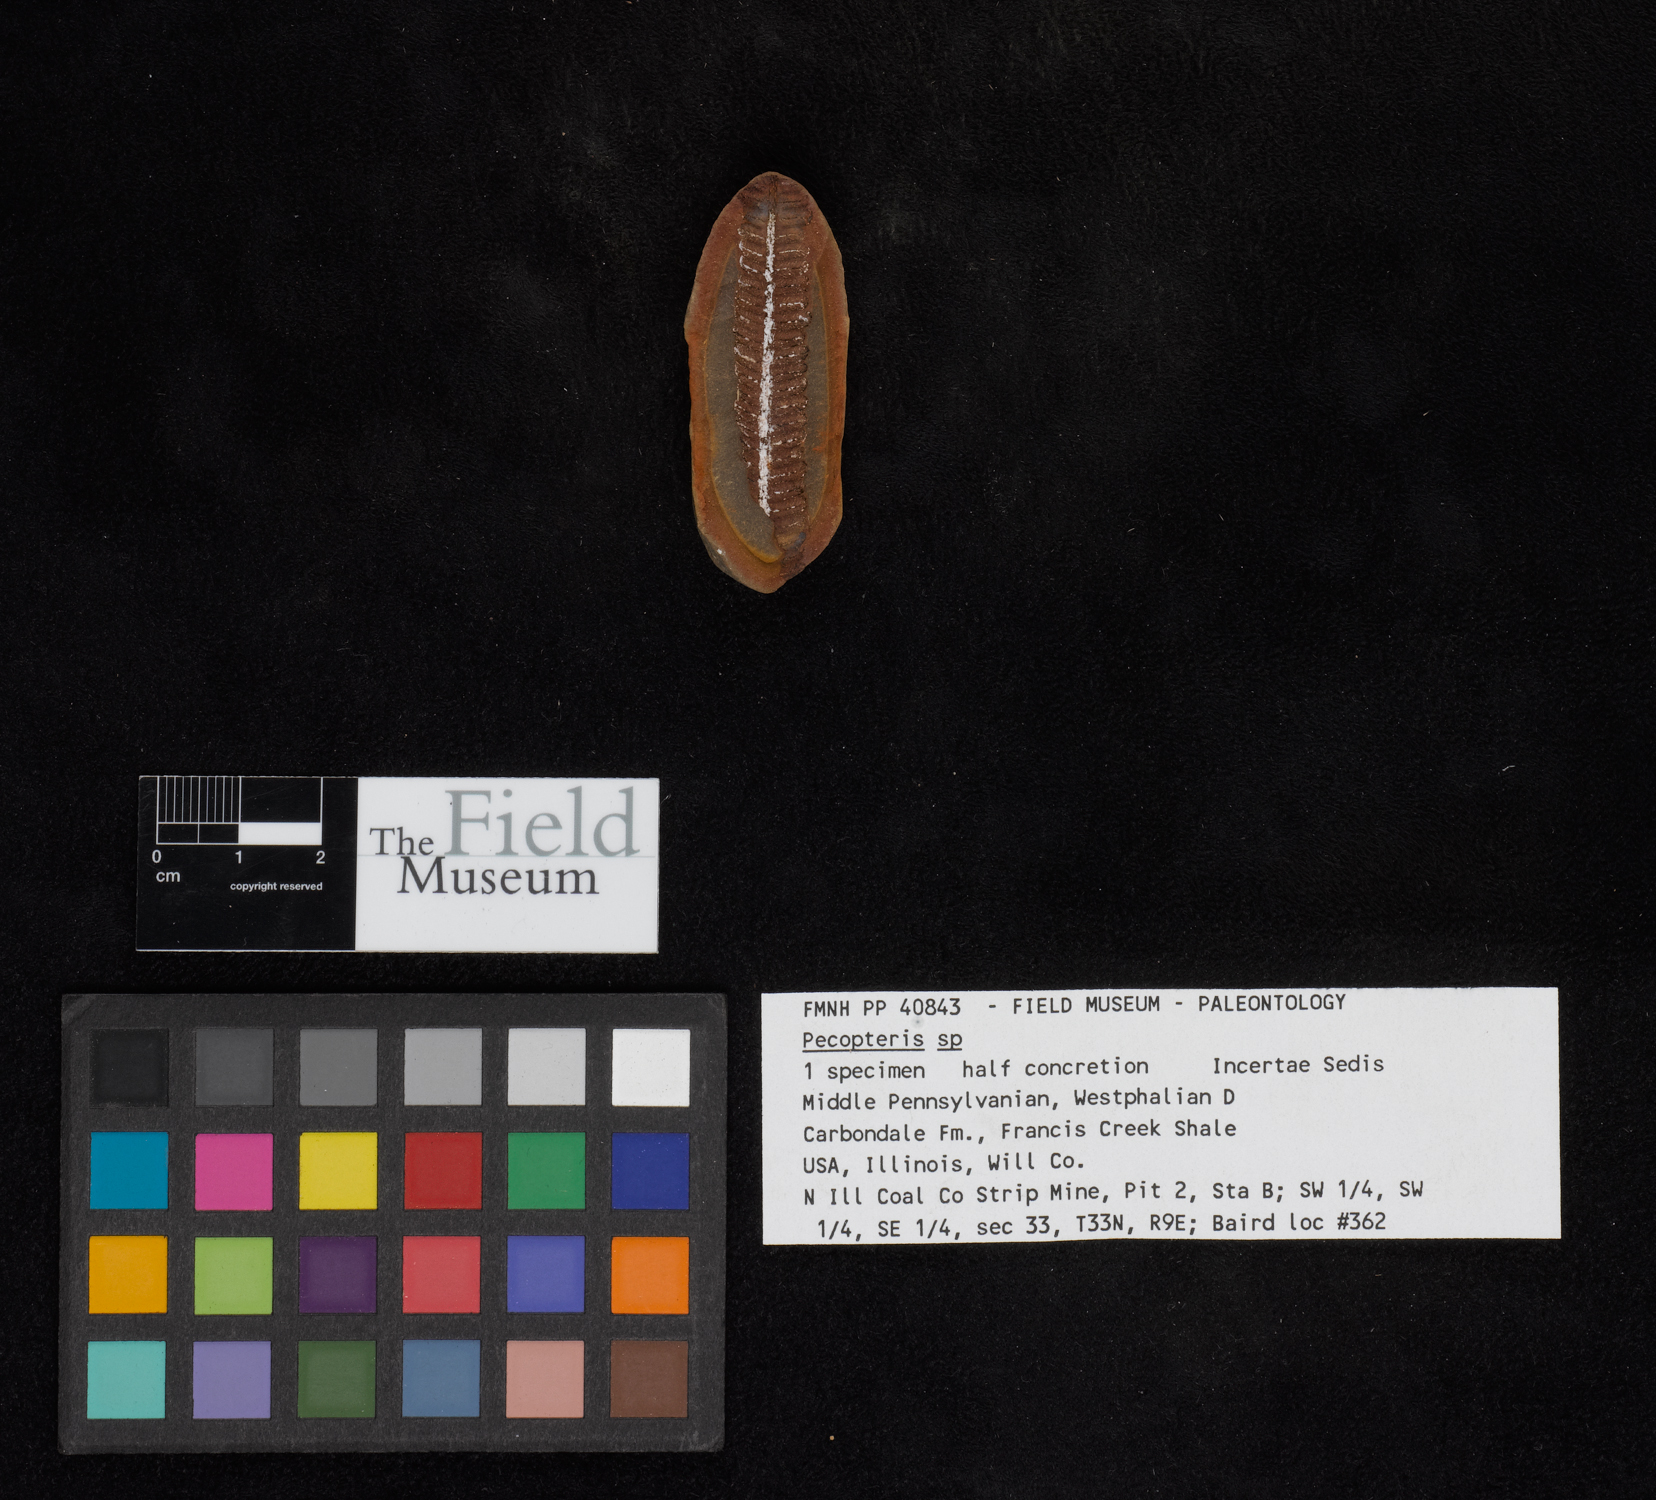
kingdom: Plantae
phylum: Tracheophyta
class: Polypodiopsida
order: Marattiales
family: Asterothecaceae
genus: Pecopteris
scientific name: Pecopteris
